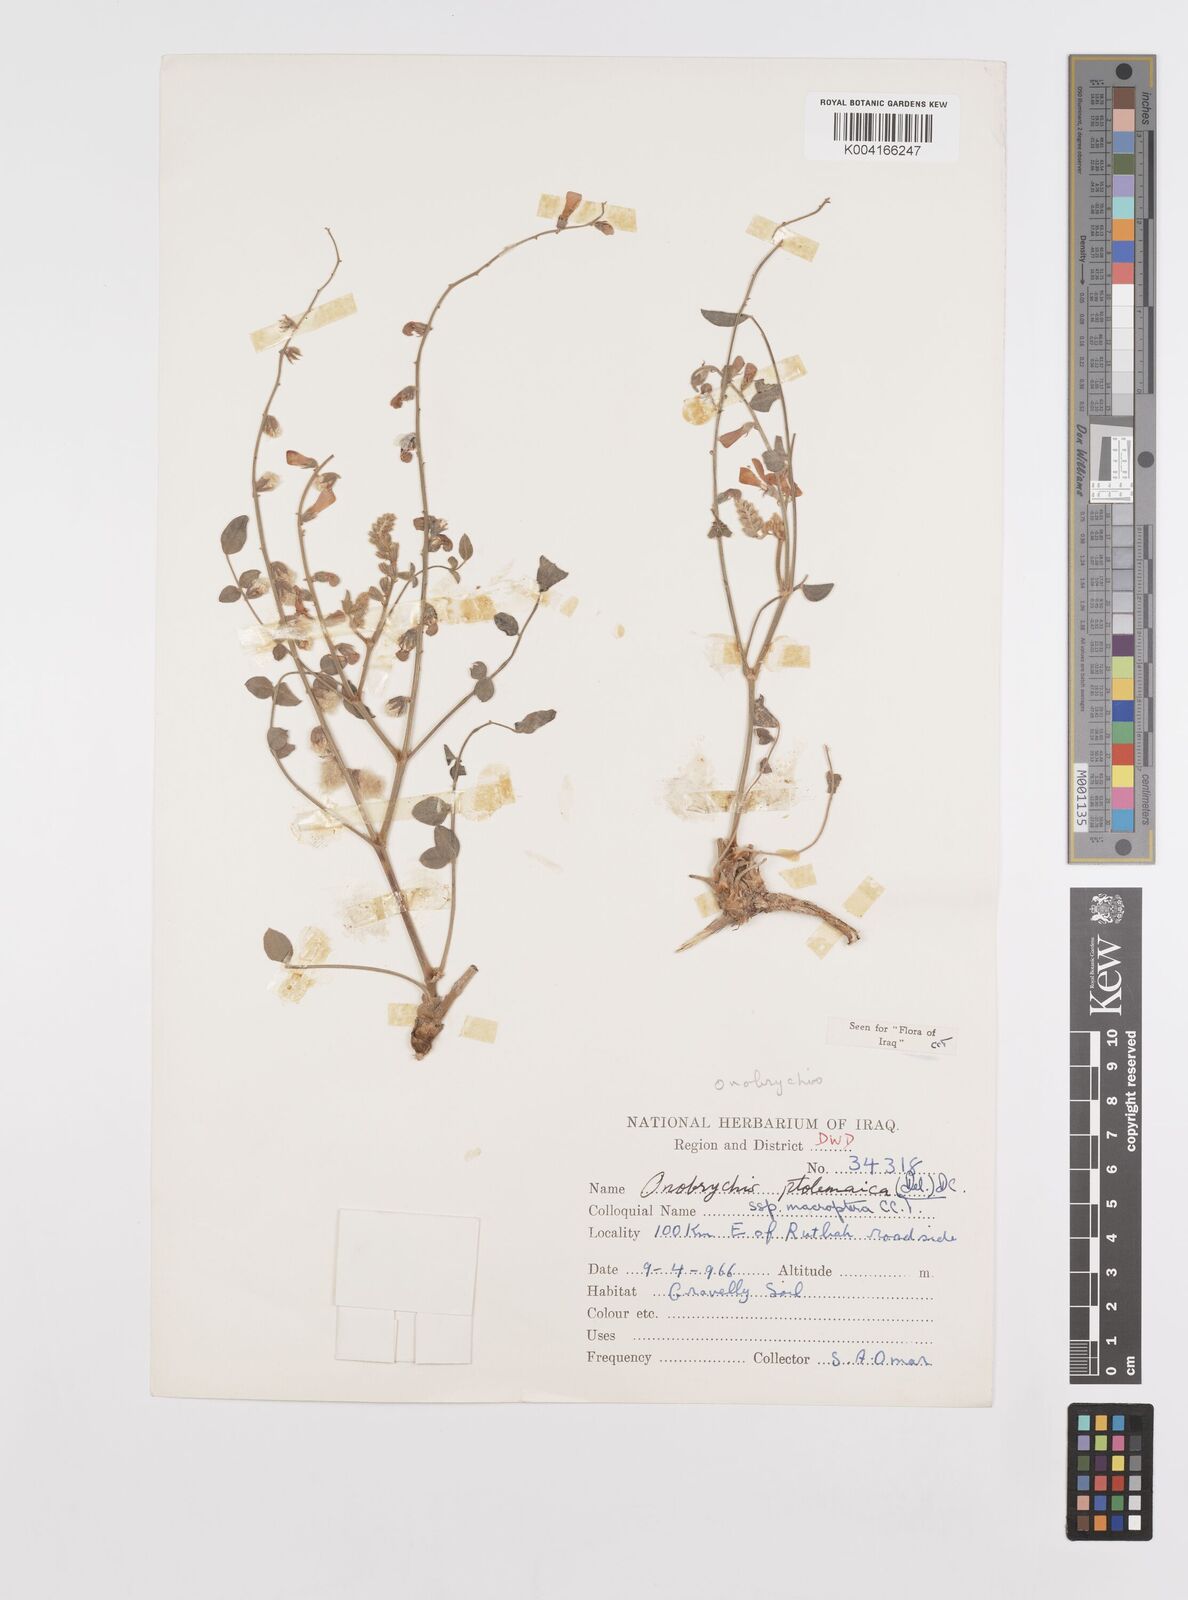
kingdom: Plantae
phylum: Tracheophyta
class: Magnoliopsida
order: Fabales
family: Fabaceae
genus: Onobrychis
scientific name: Onobrychis ptolemaica
